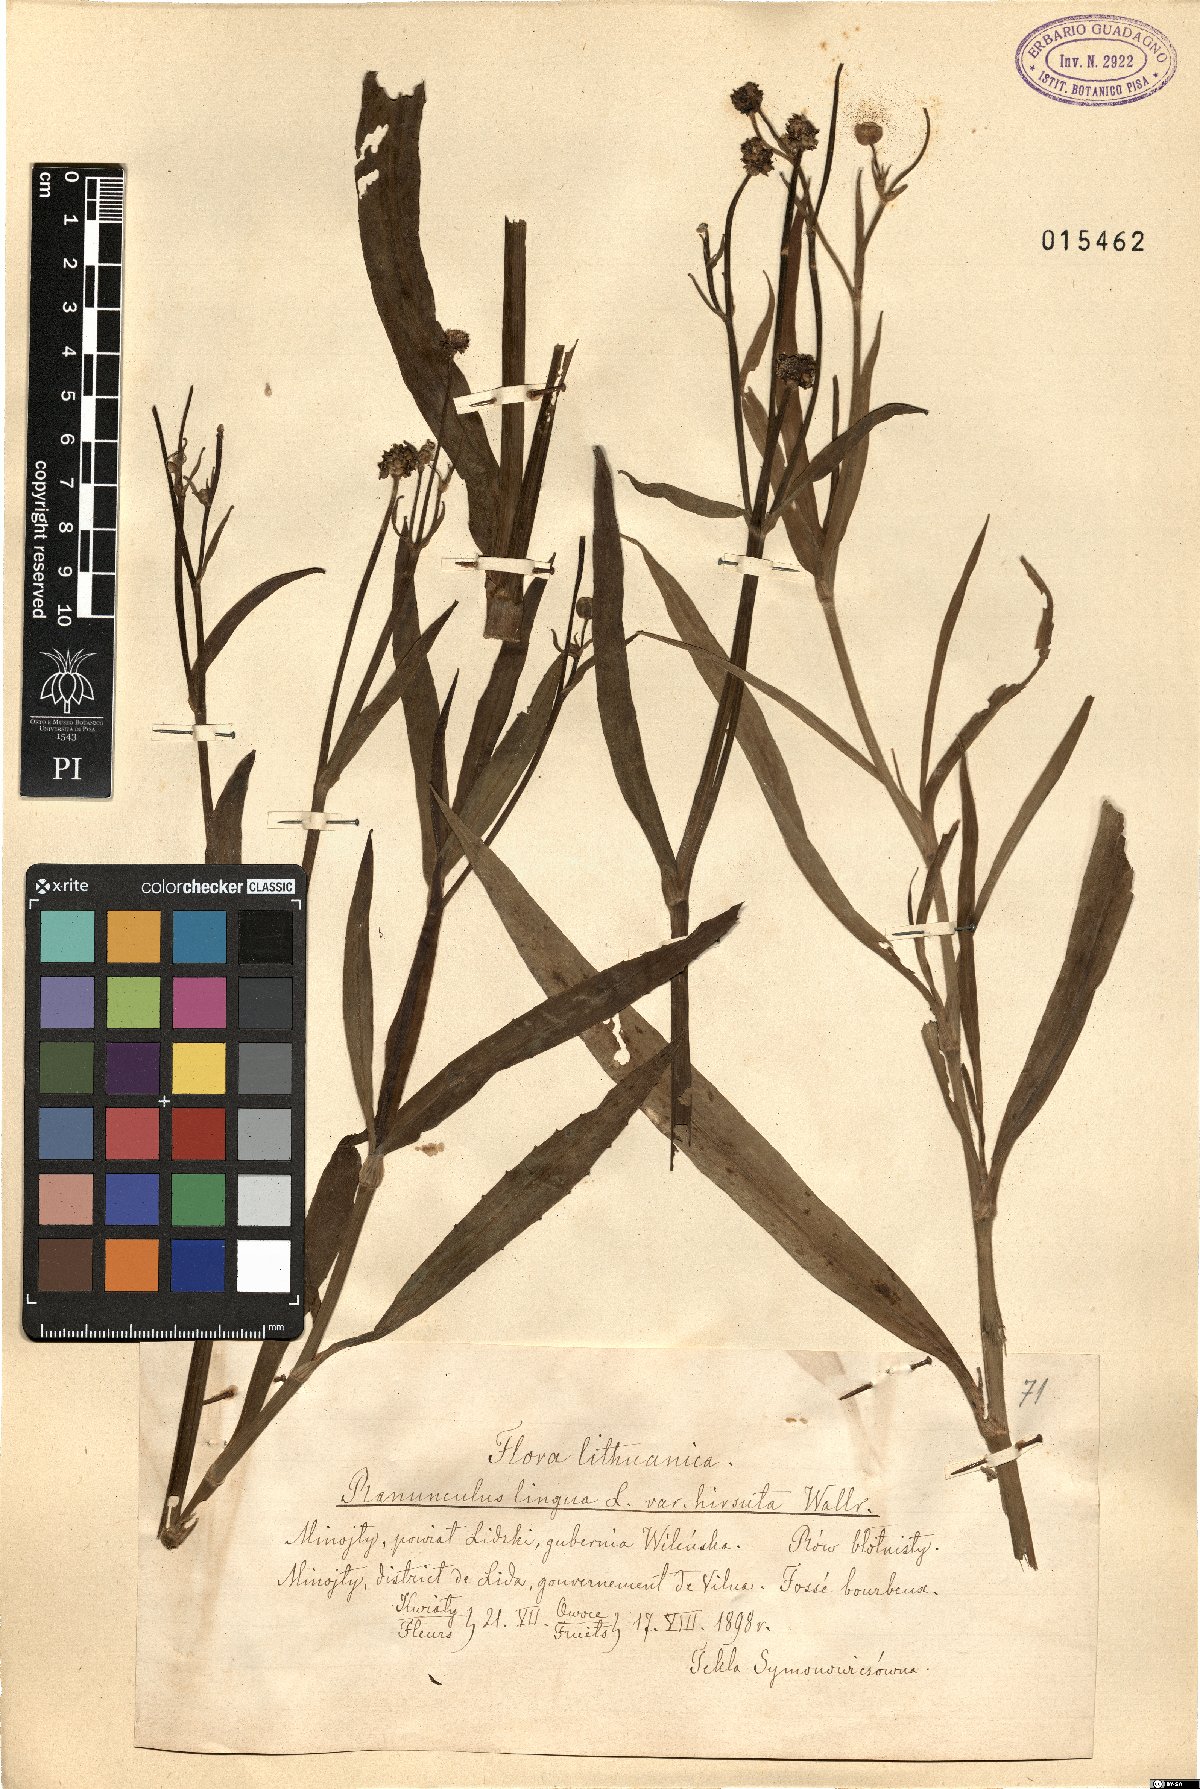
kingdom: Plantae
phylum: Tracheophyta
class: Magnoliopsida
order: Ranunculales
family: Ranunculaceae
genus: Ranunculus
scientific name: Ranunculus lingua
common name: Greater spearwort
